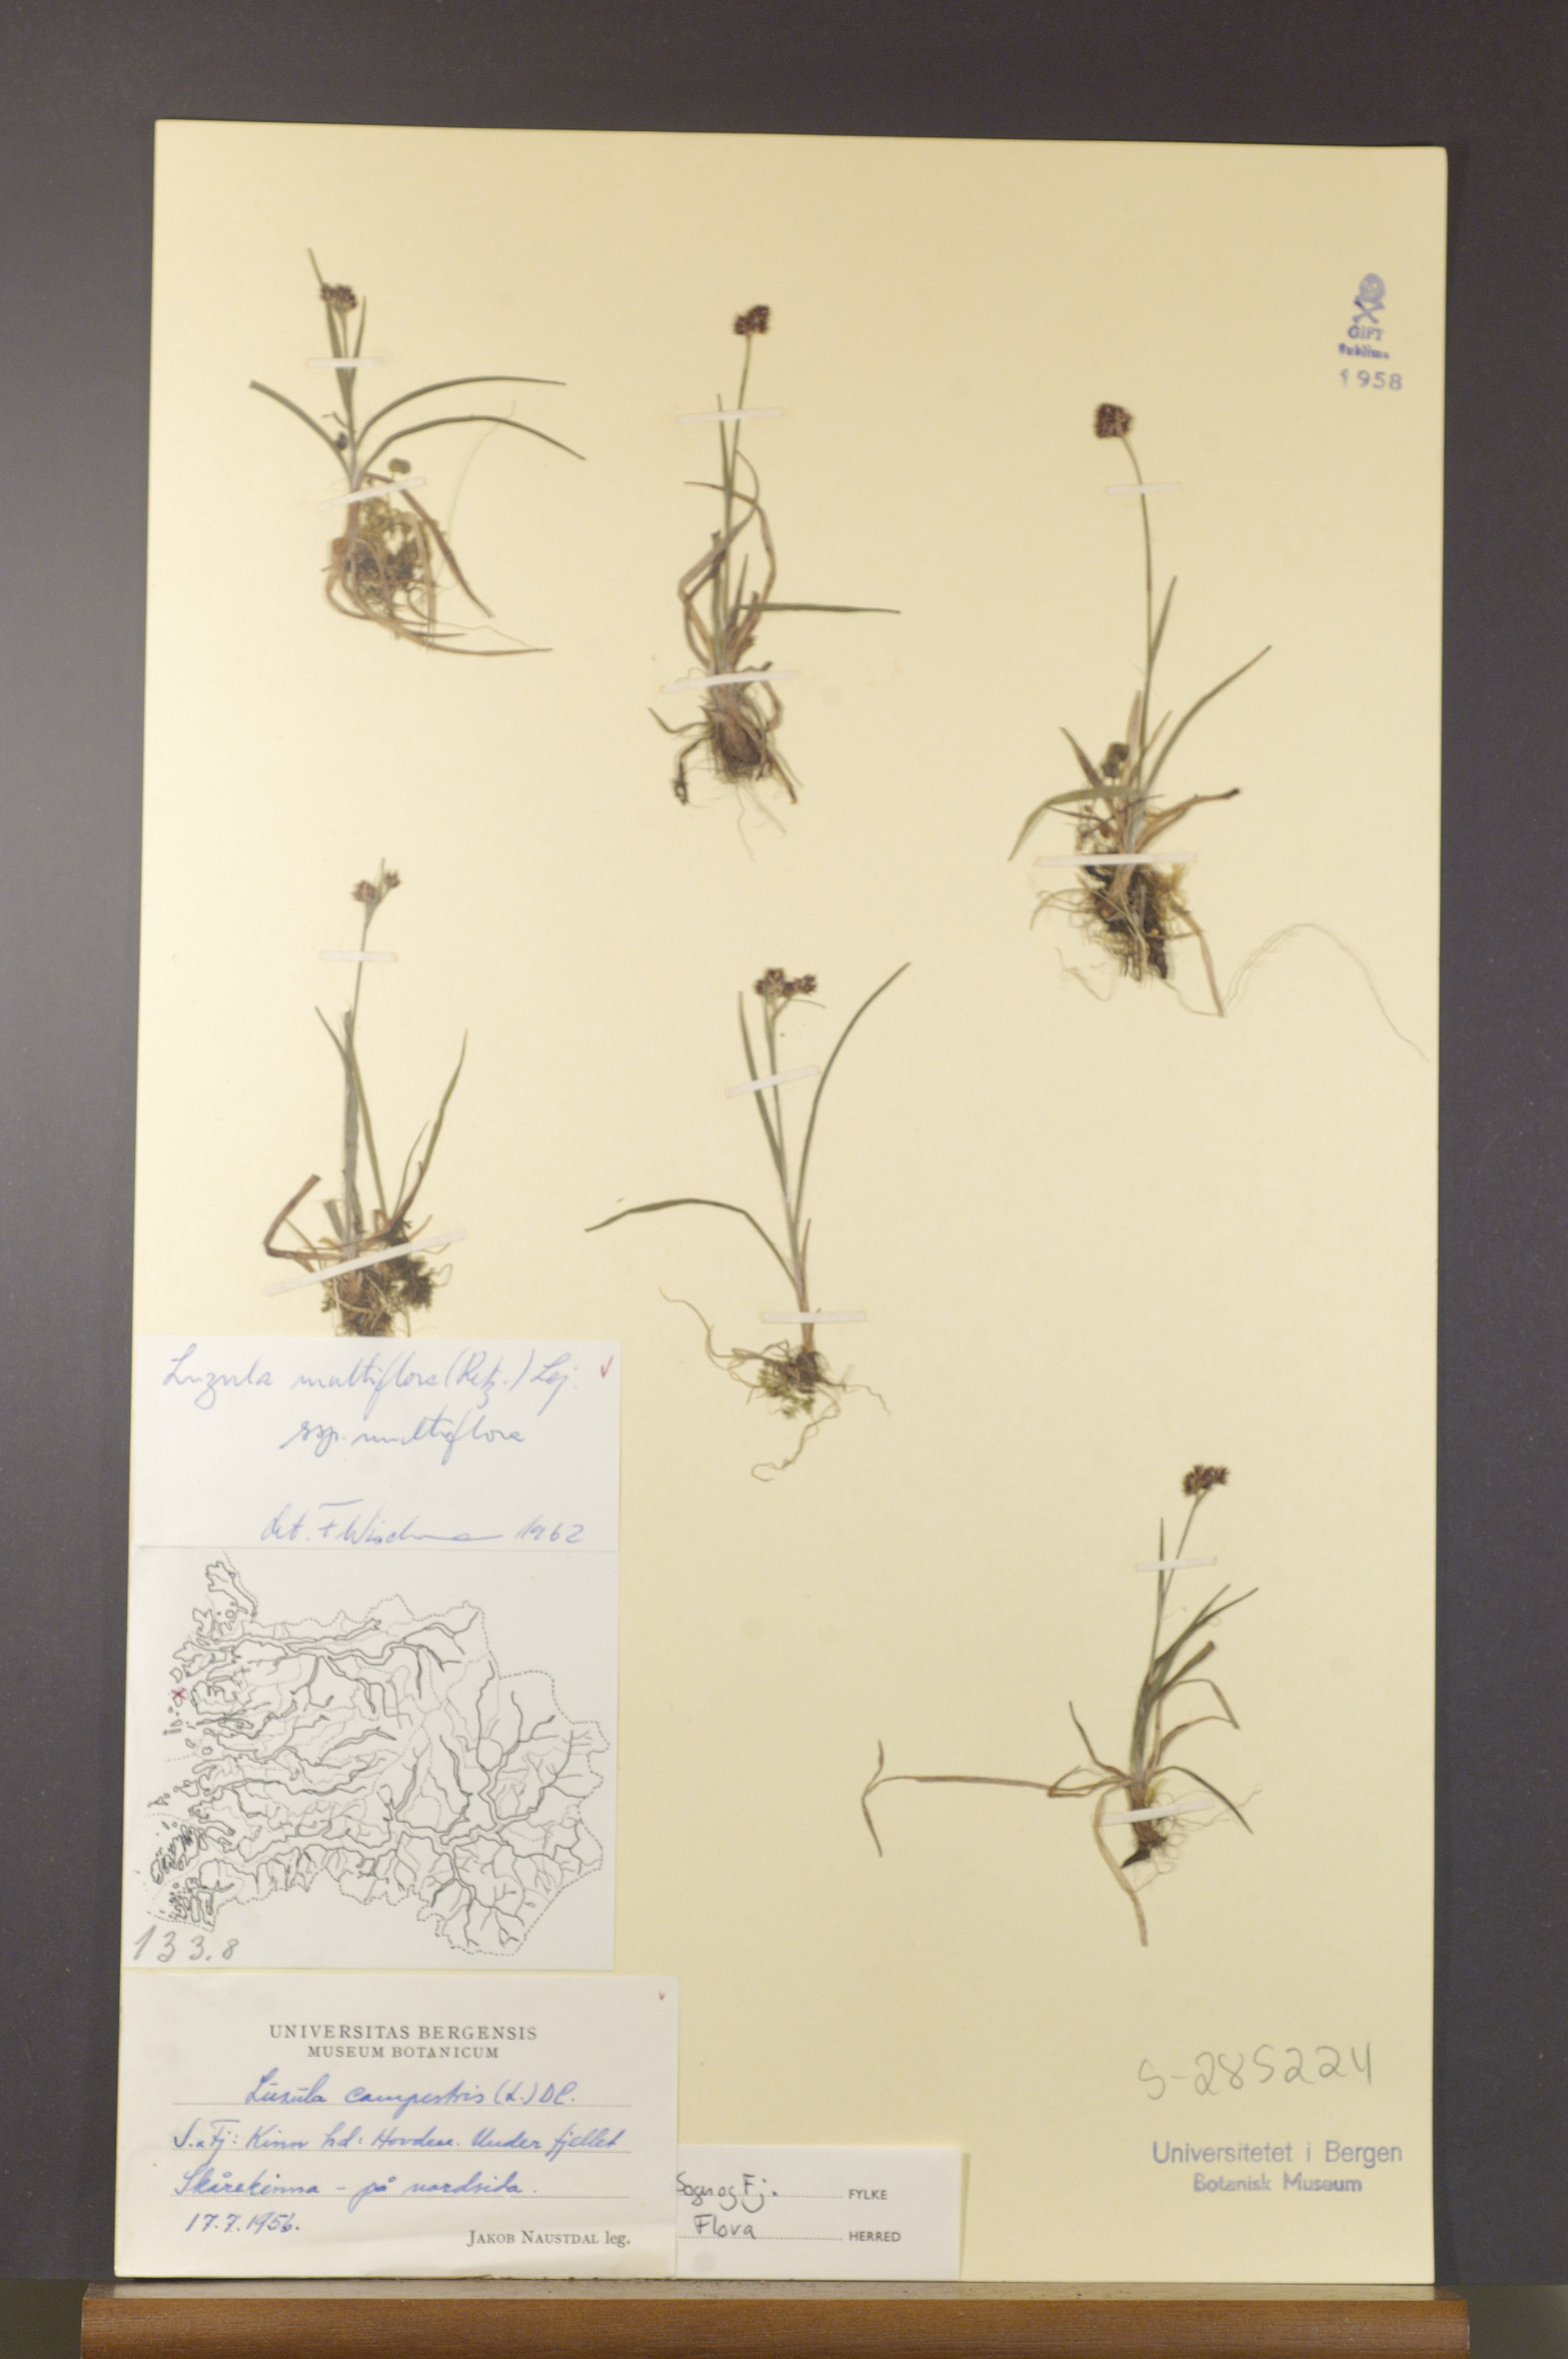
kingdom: Plantae
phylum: Tracheophyta
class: Liliopsida
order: Poales
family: Juncaceae
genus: Luzula
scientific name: Luzula multiflora
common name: Heath wood-rush
